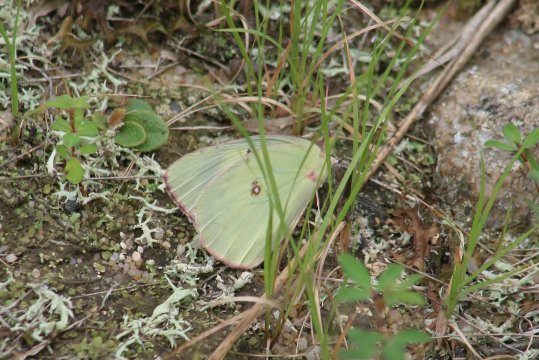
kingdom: Animalia
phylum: Arthropoda
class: Insecta
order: Lepidoptera
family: Pieridae
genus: Colias
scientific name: Colias philodice
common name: Clouded Sulphur
